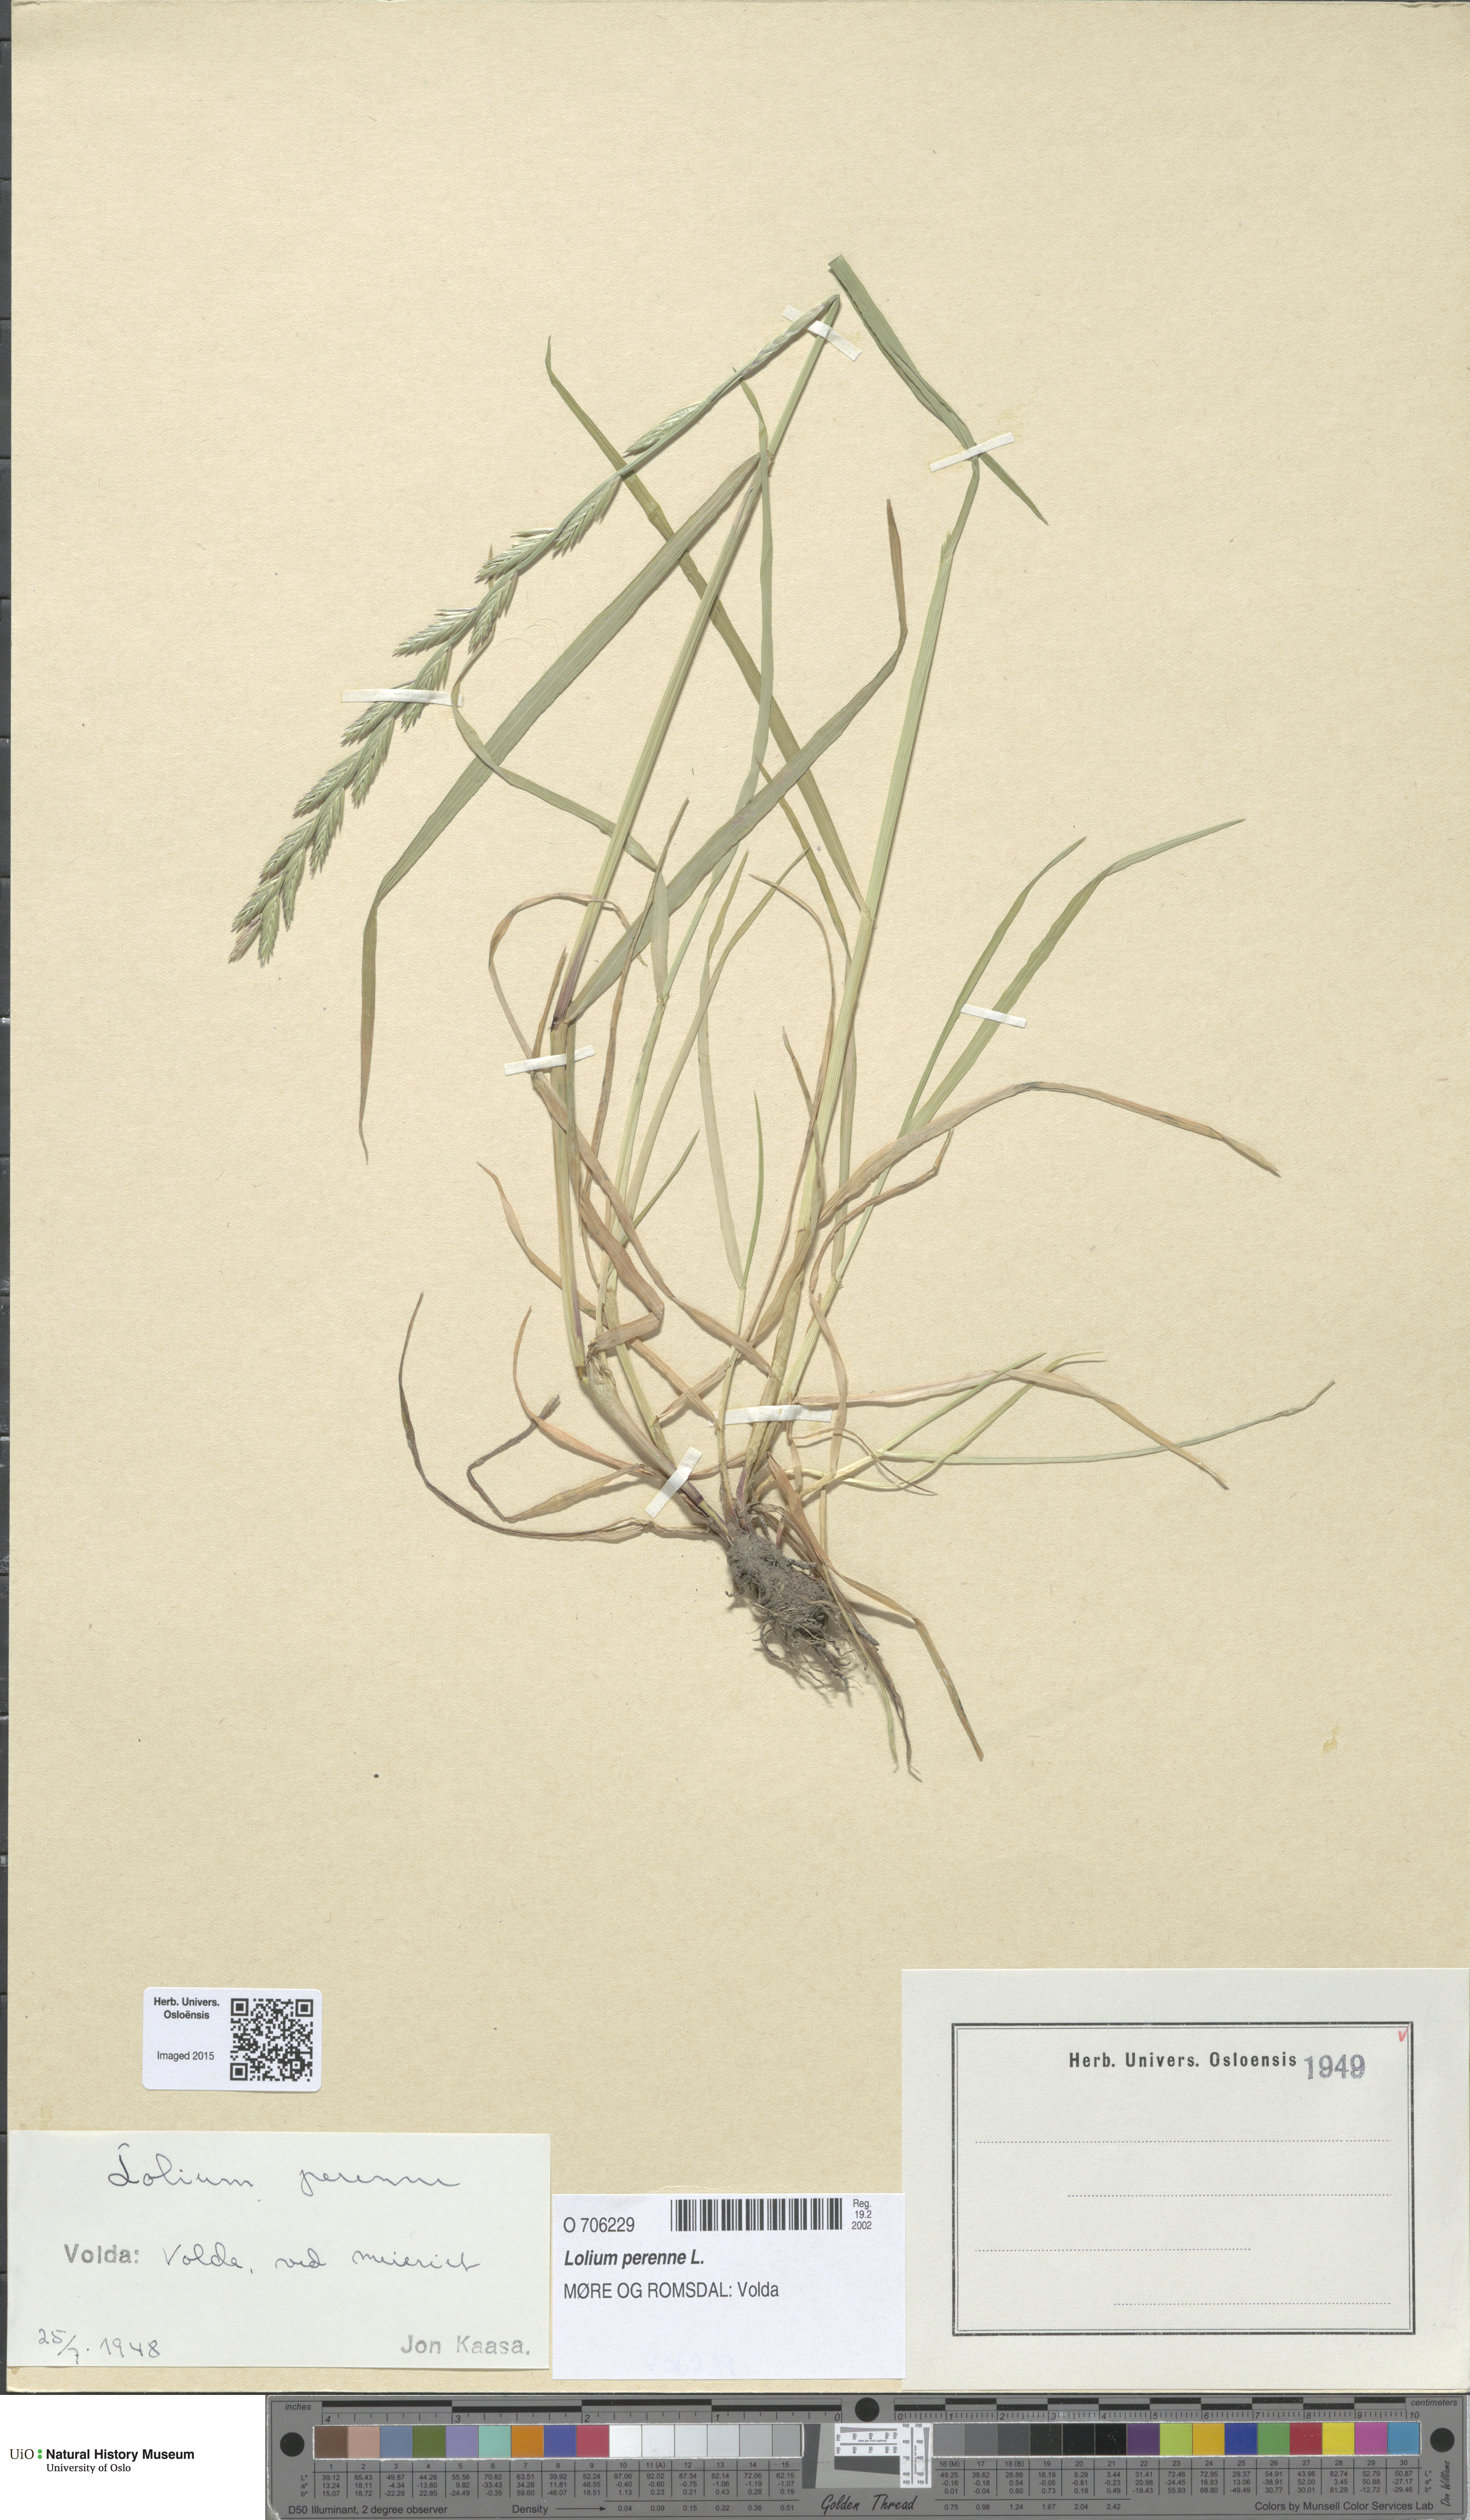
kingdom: Plantae
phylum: Tracheophyta
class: Liliopsida
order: Poales
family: Poaceae
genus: Lolium
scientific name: Lolium perenne
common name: Perennial ryegrass
